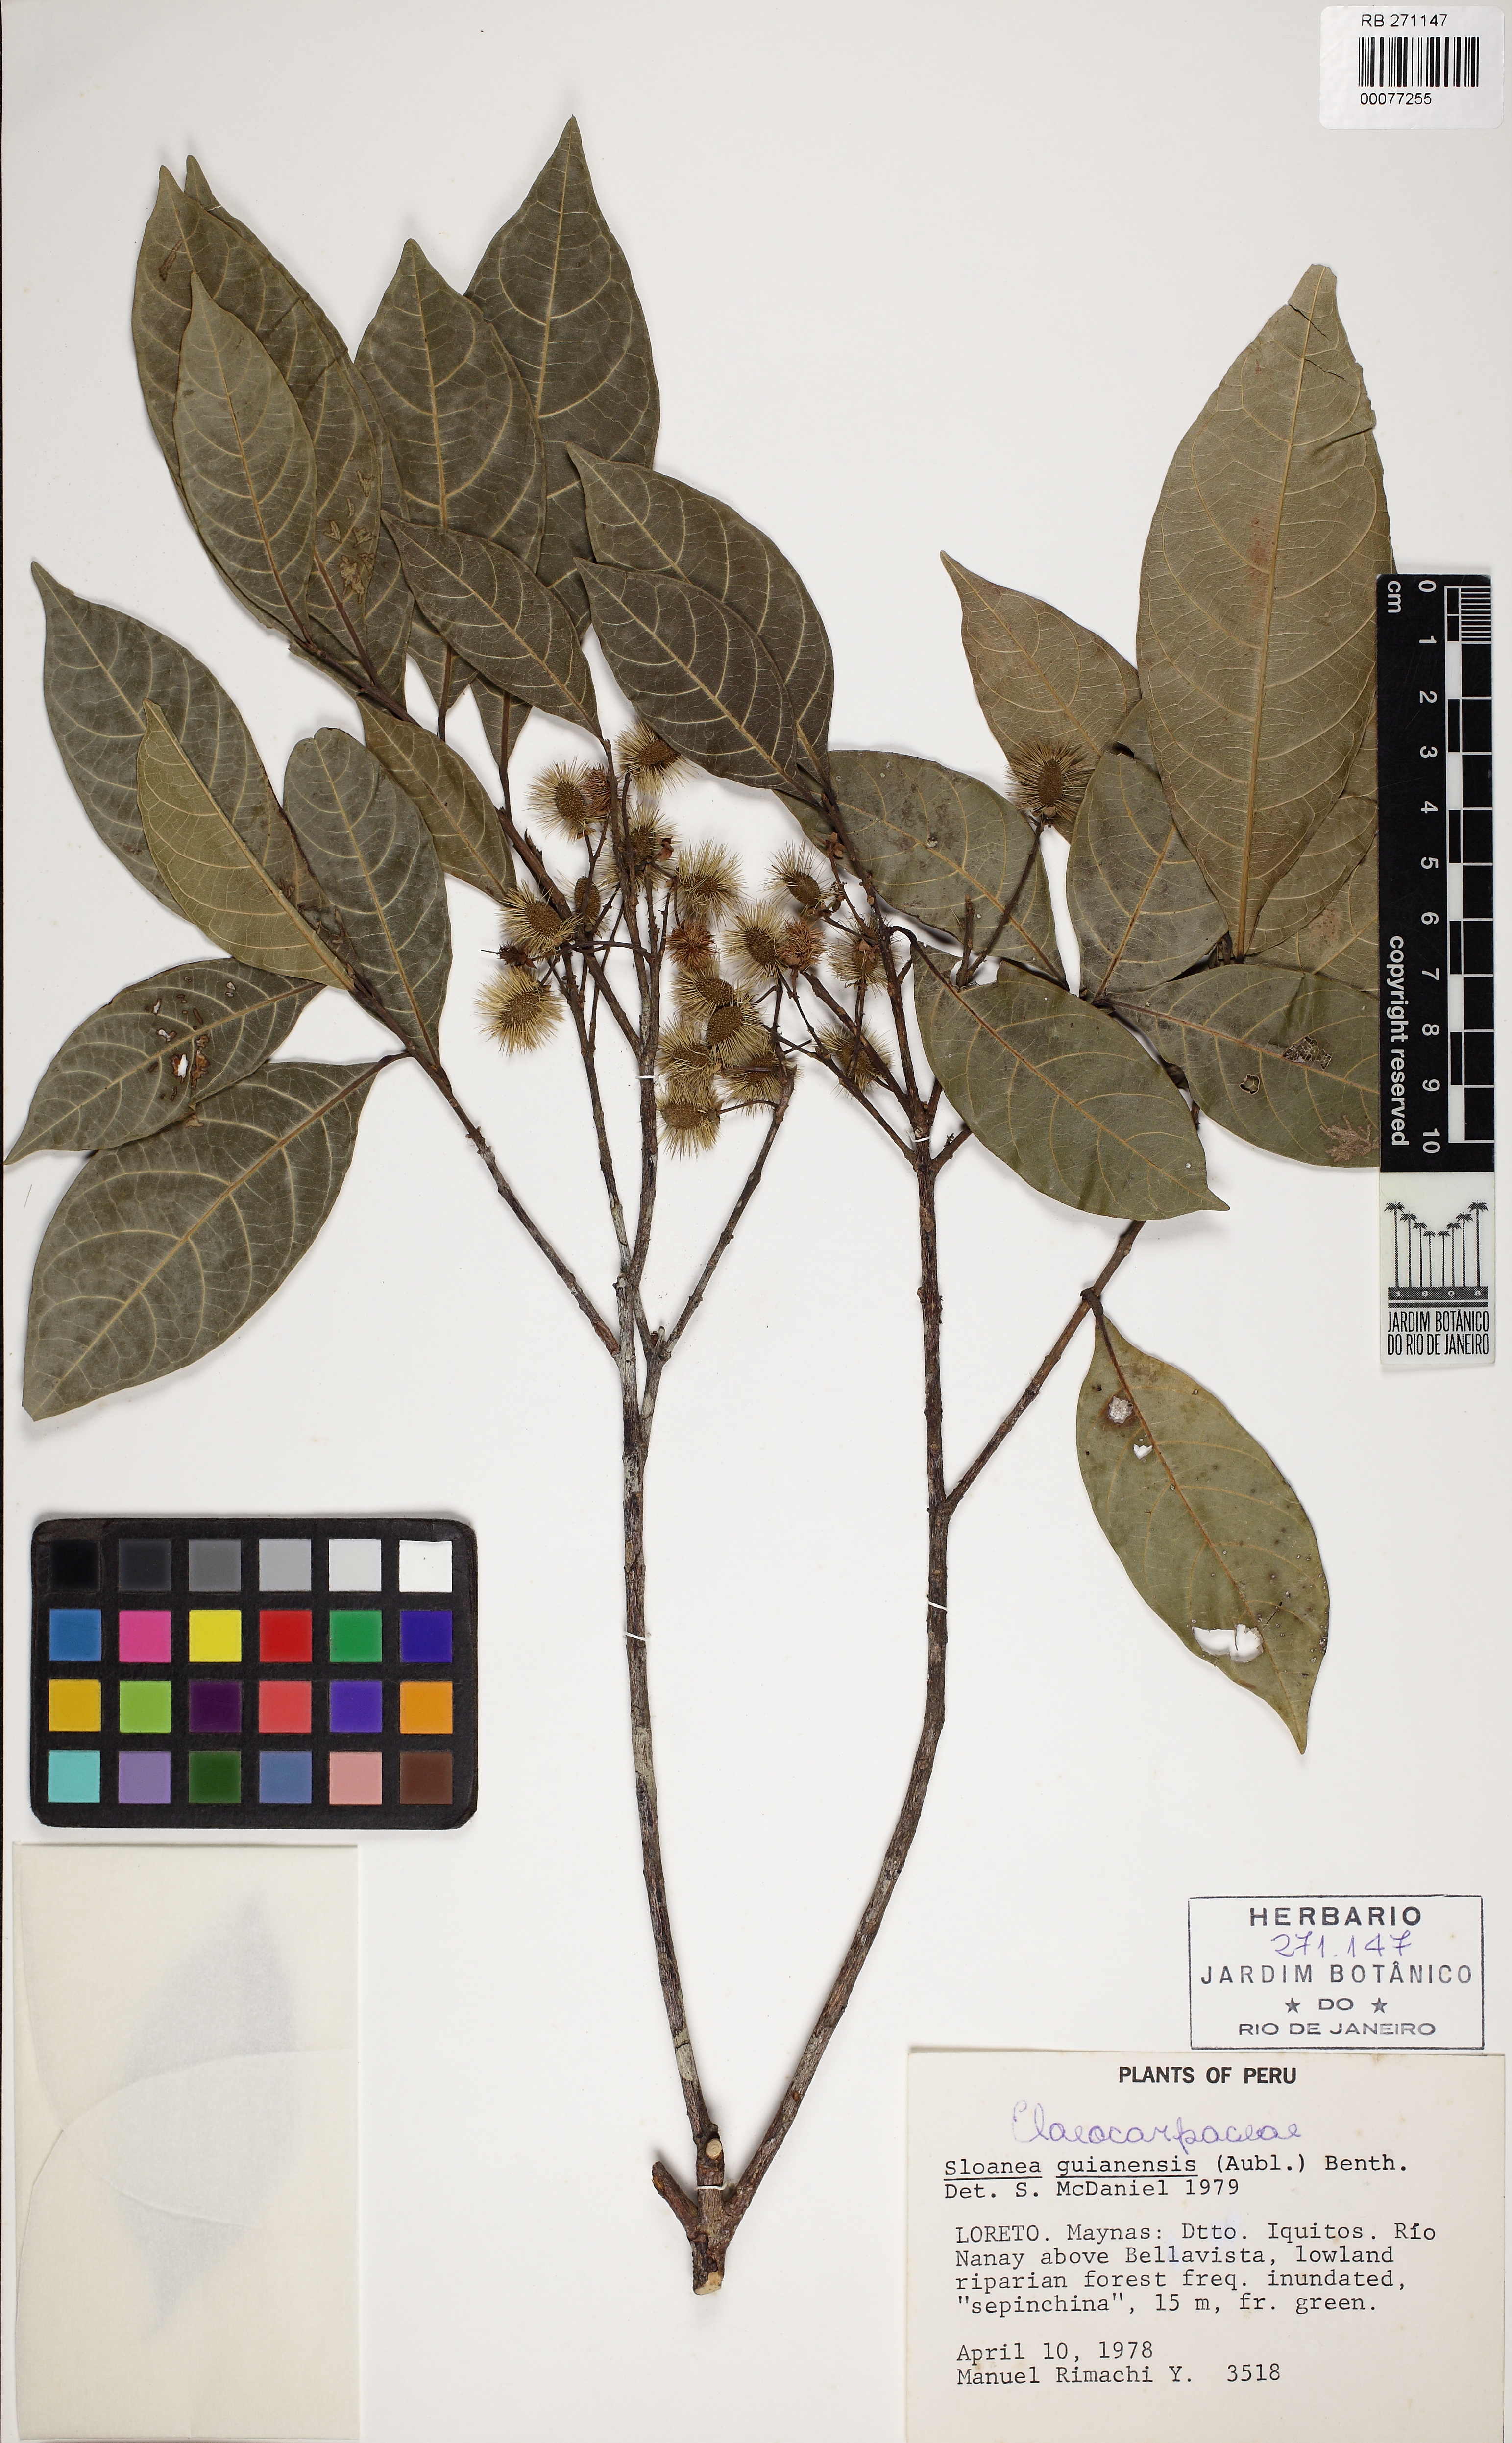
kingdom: Plantae
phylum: Tracheophyta
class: Magnoliopsida
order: Oxalidales
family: Elaeocarpaceae
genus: Sloanea
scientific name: Sloanea guianensis
